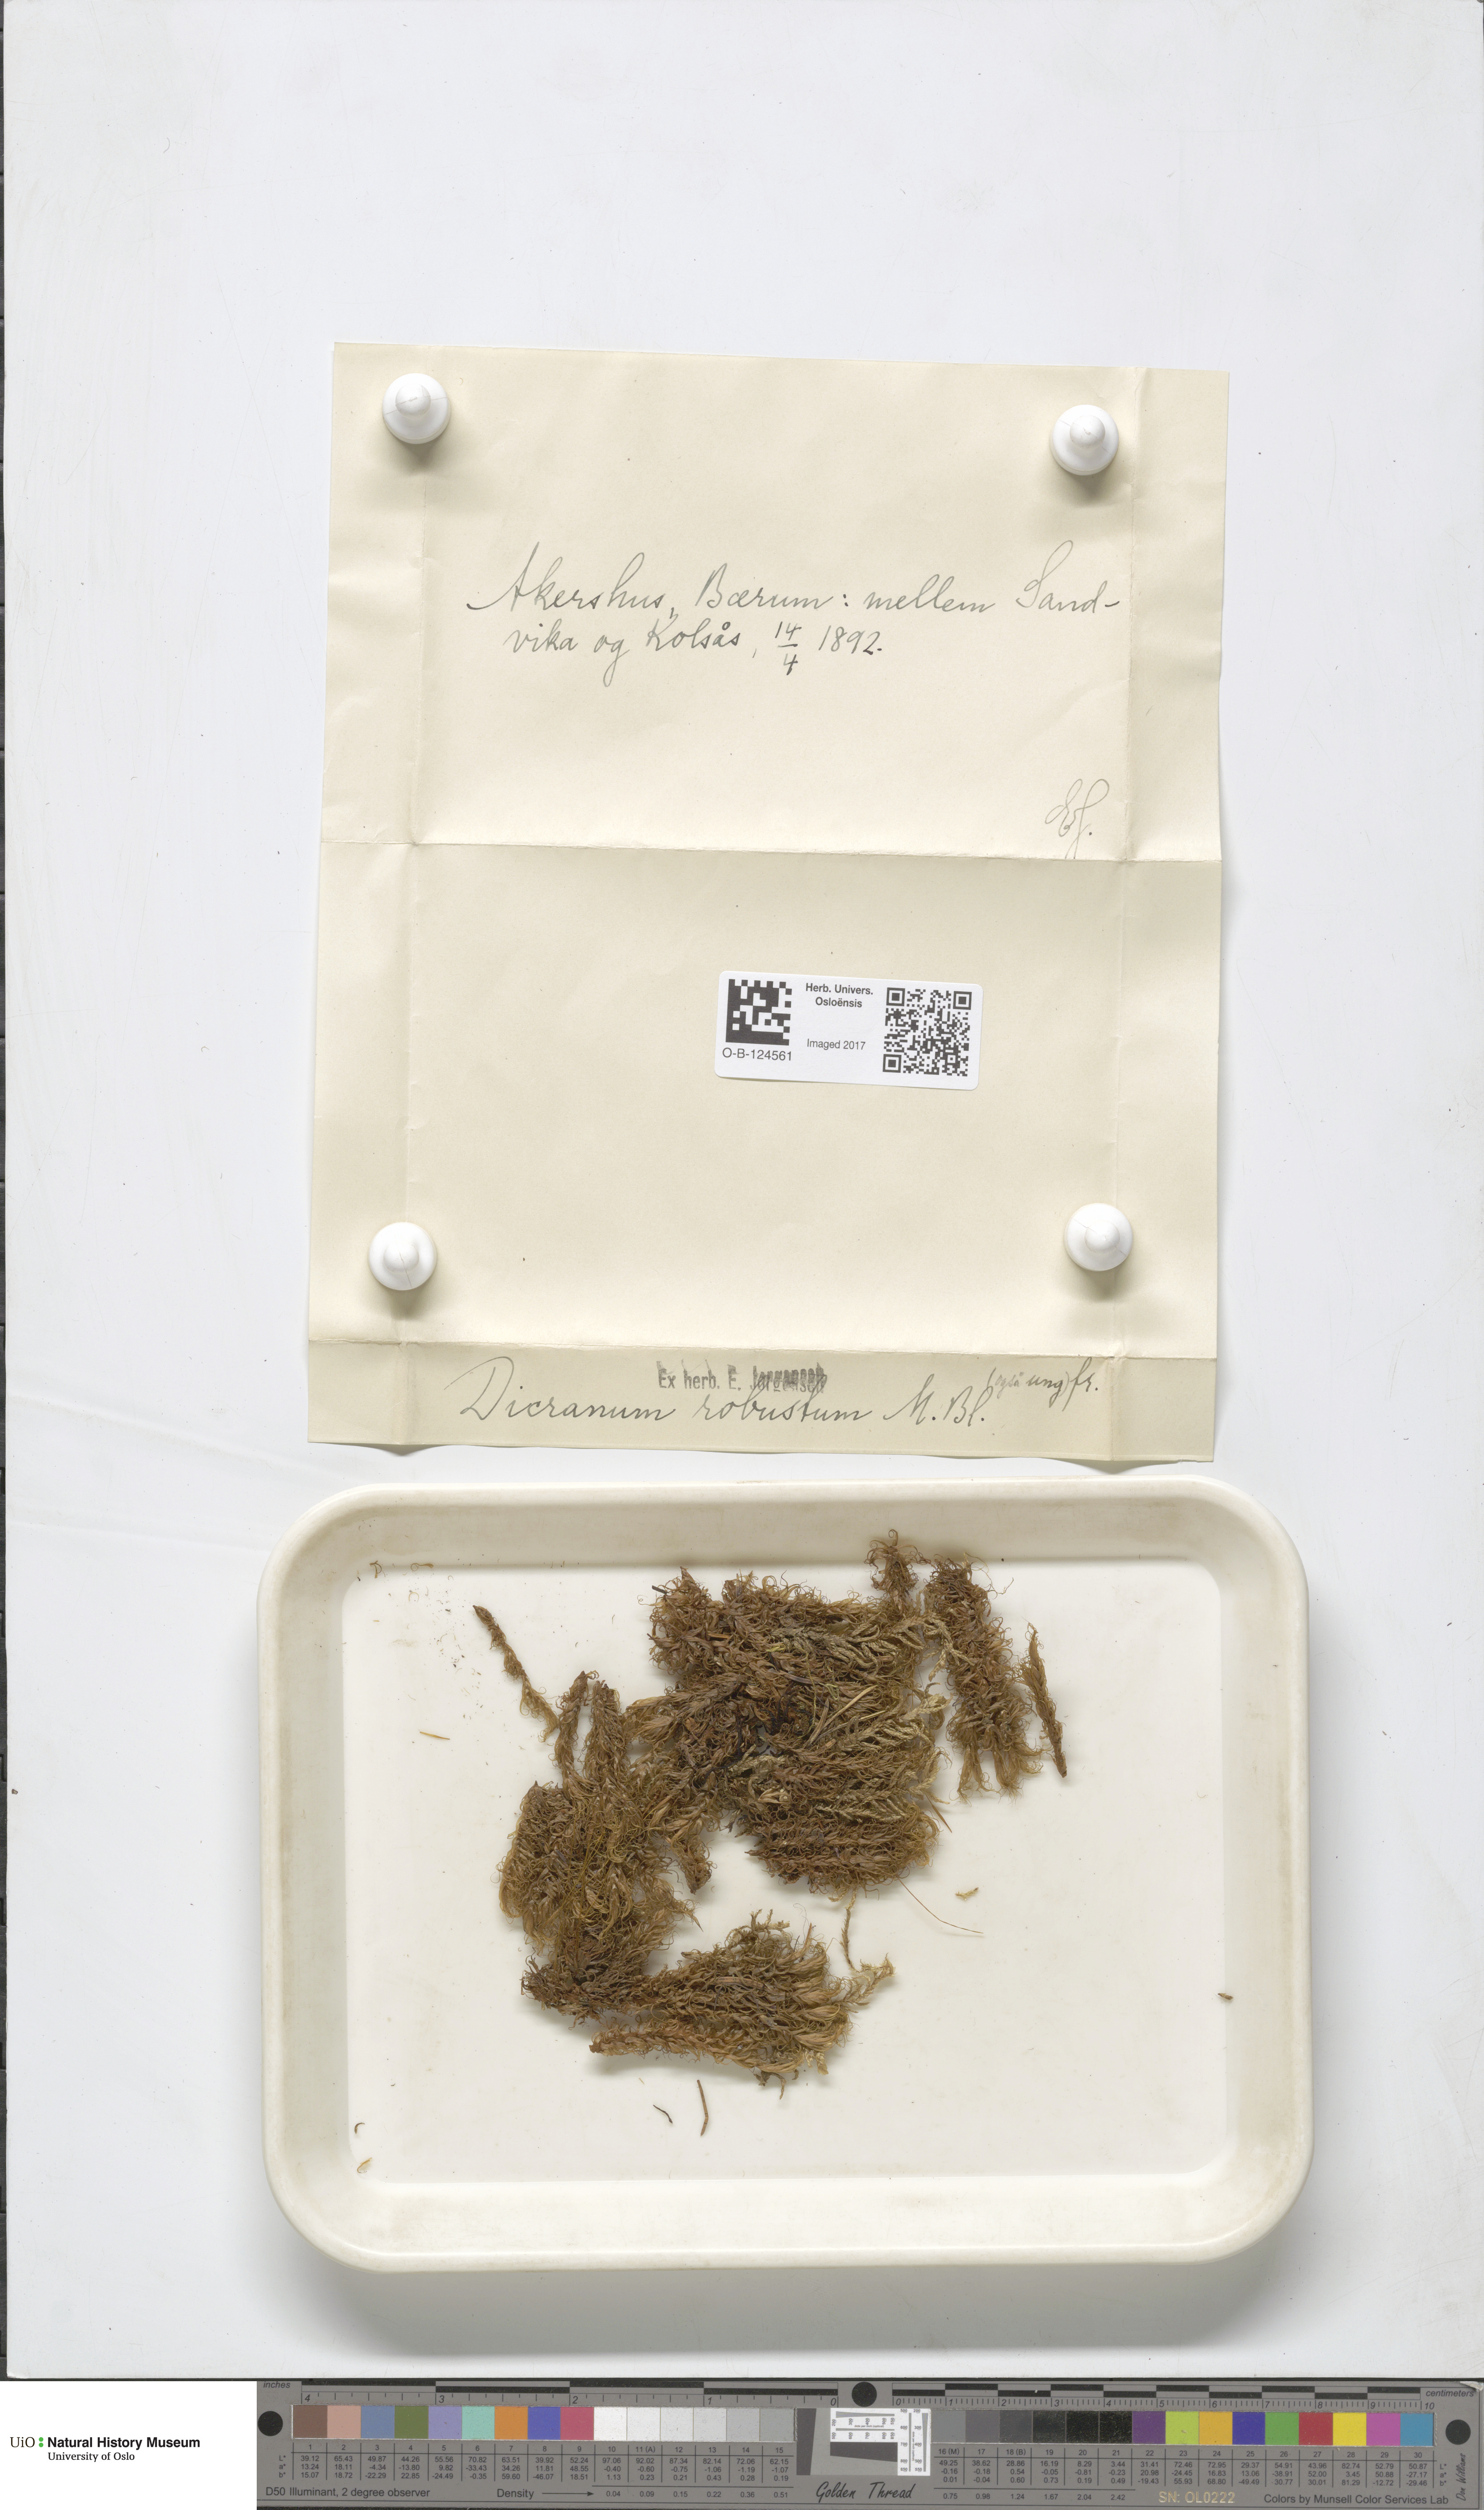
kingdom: Plantae
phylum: Bryophyta
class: Bryopsida
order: Dicranales
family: Dicranaceae
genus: Dicranum
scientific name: Dicranum drummondii
